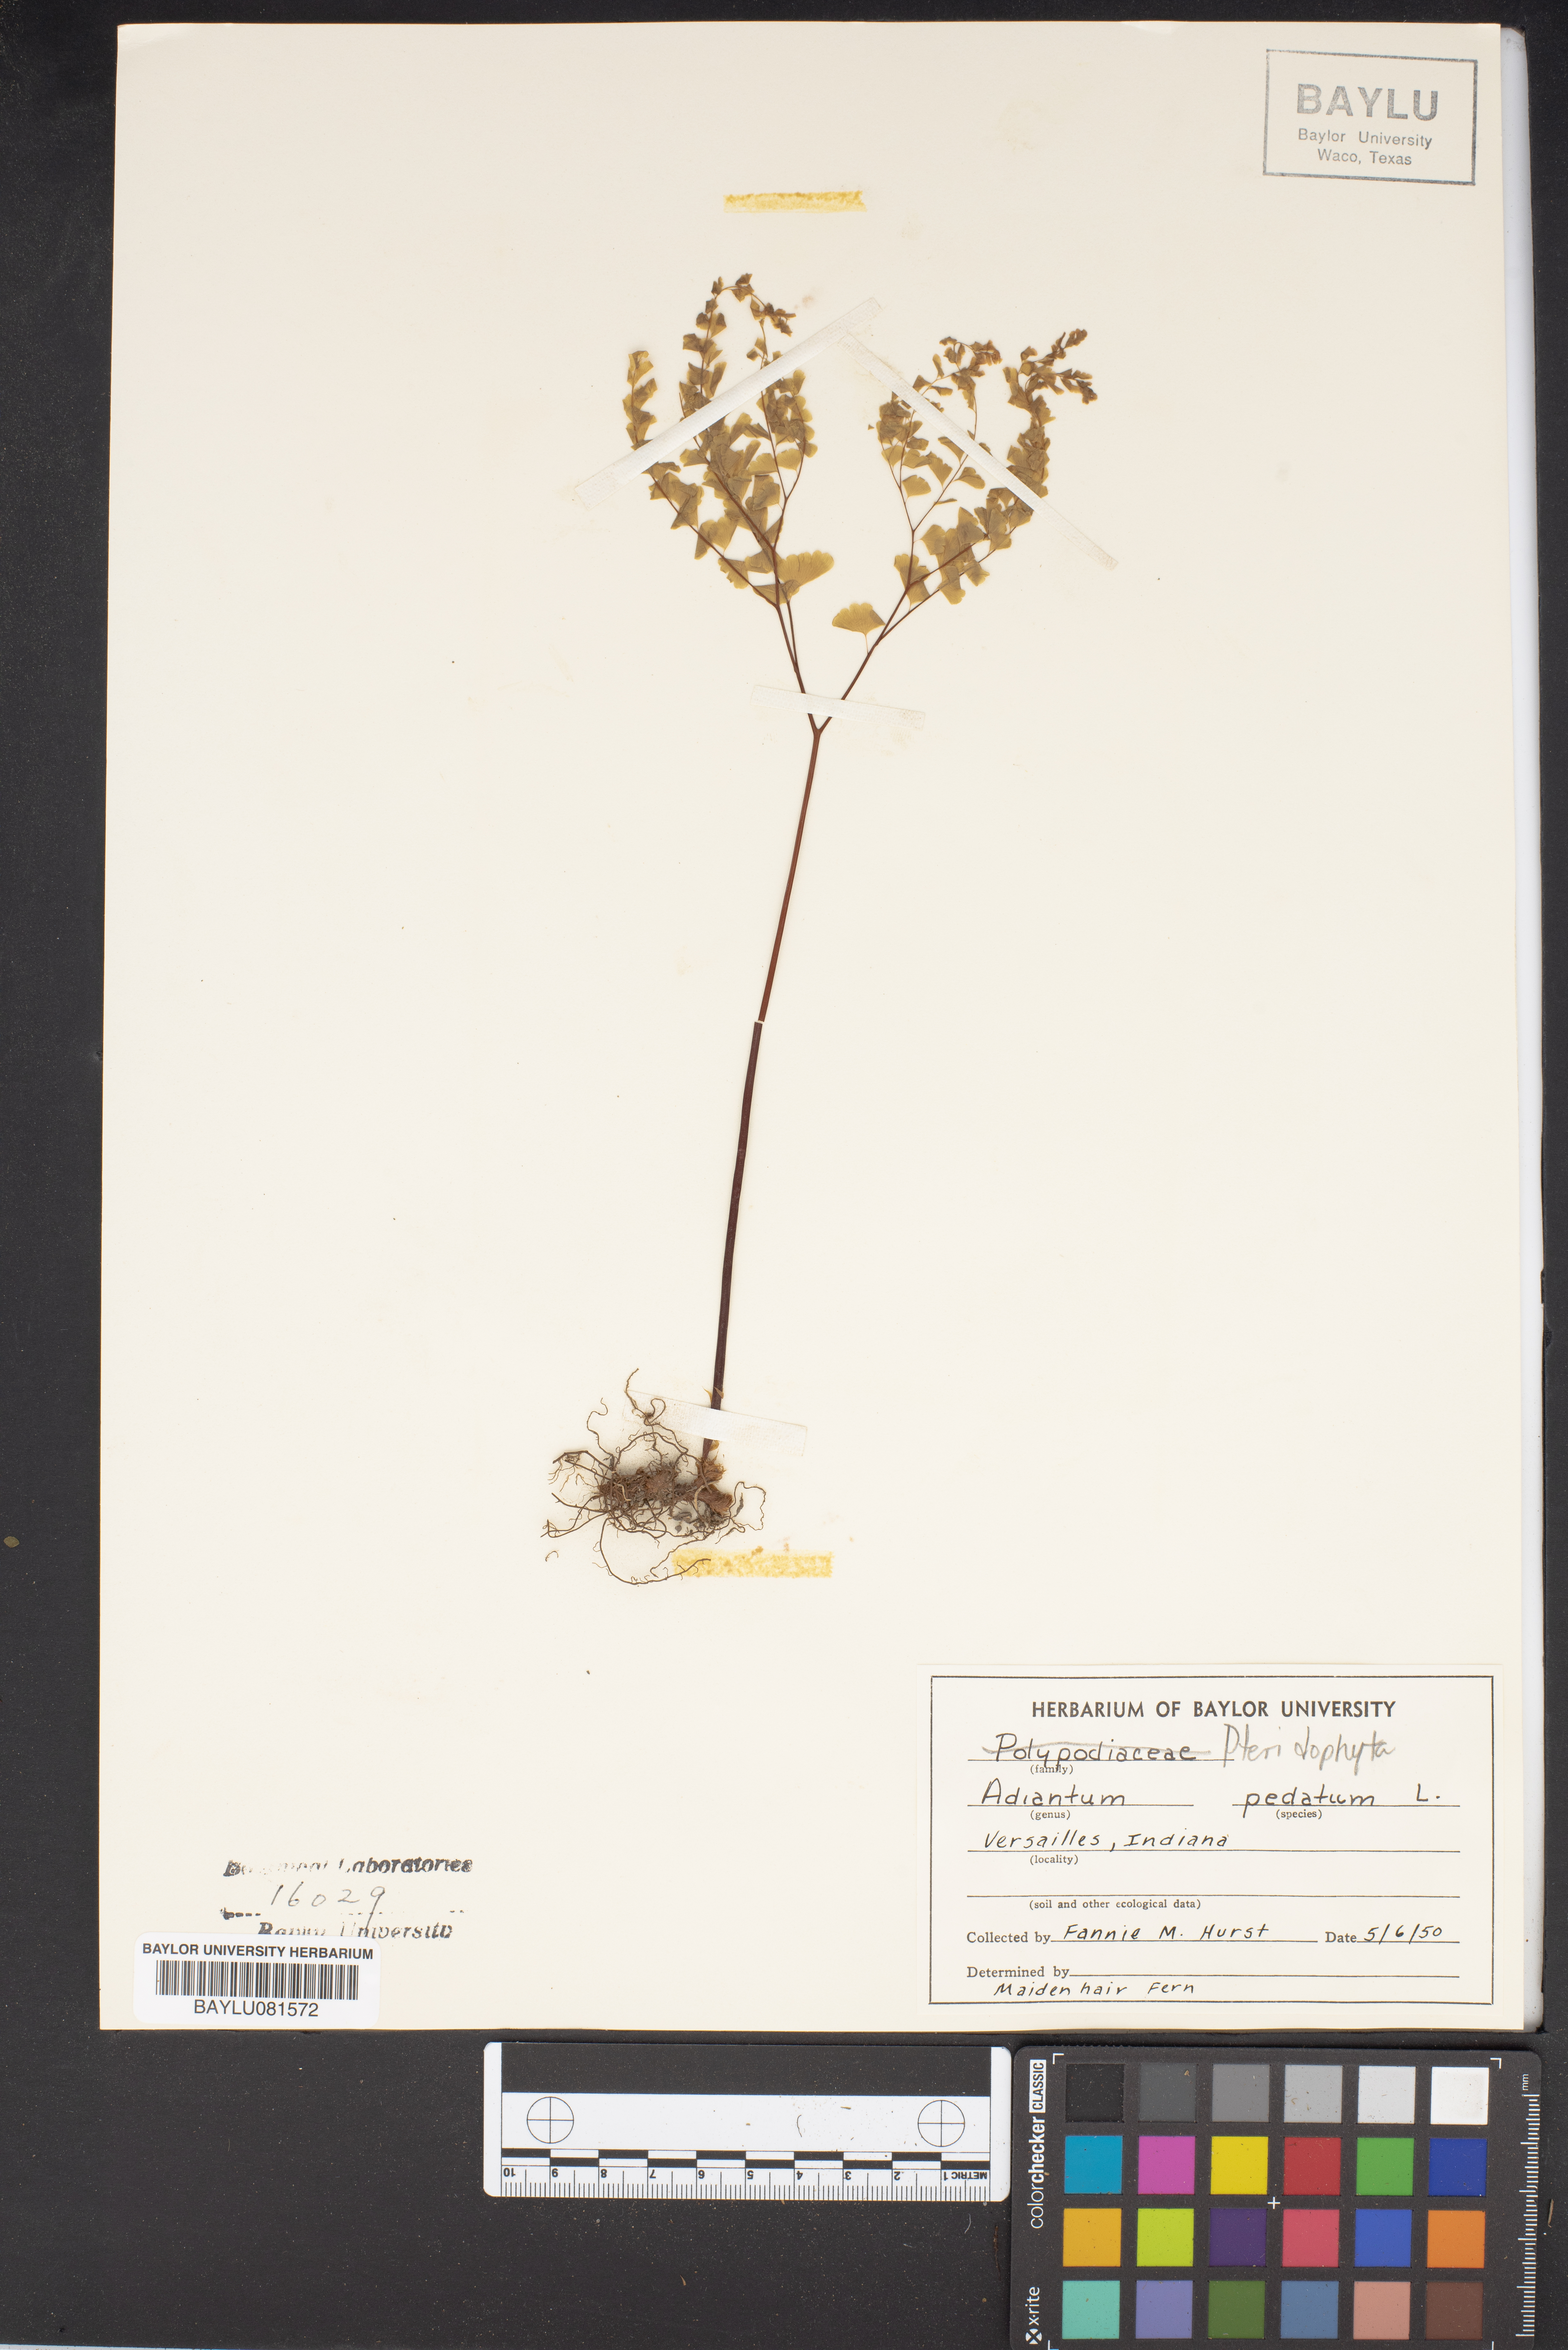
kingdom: Plantae
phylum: Tracheophyta
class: Polypodiopsida
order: Polypodiales
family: Pteridaceae
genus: Adiantum
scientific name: Adiantum pedatum
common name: Five-finger fern
